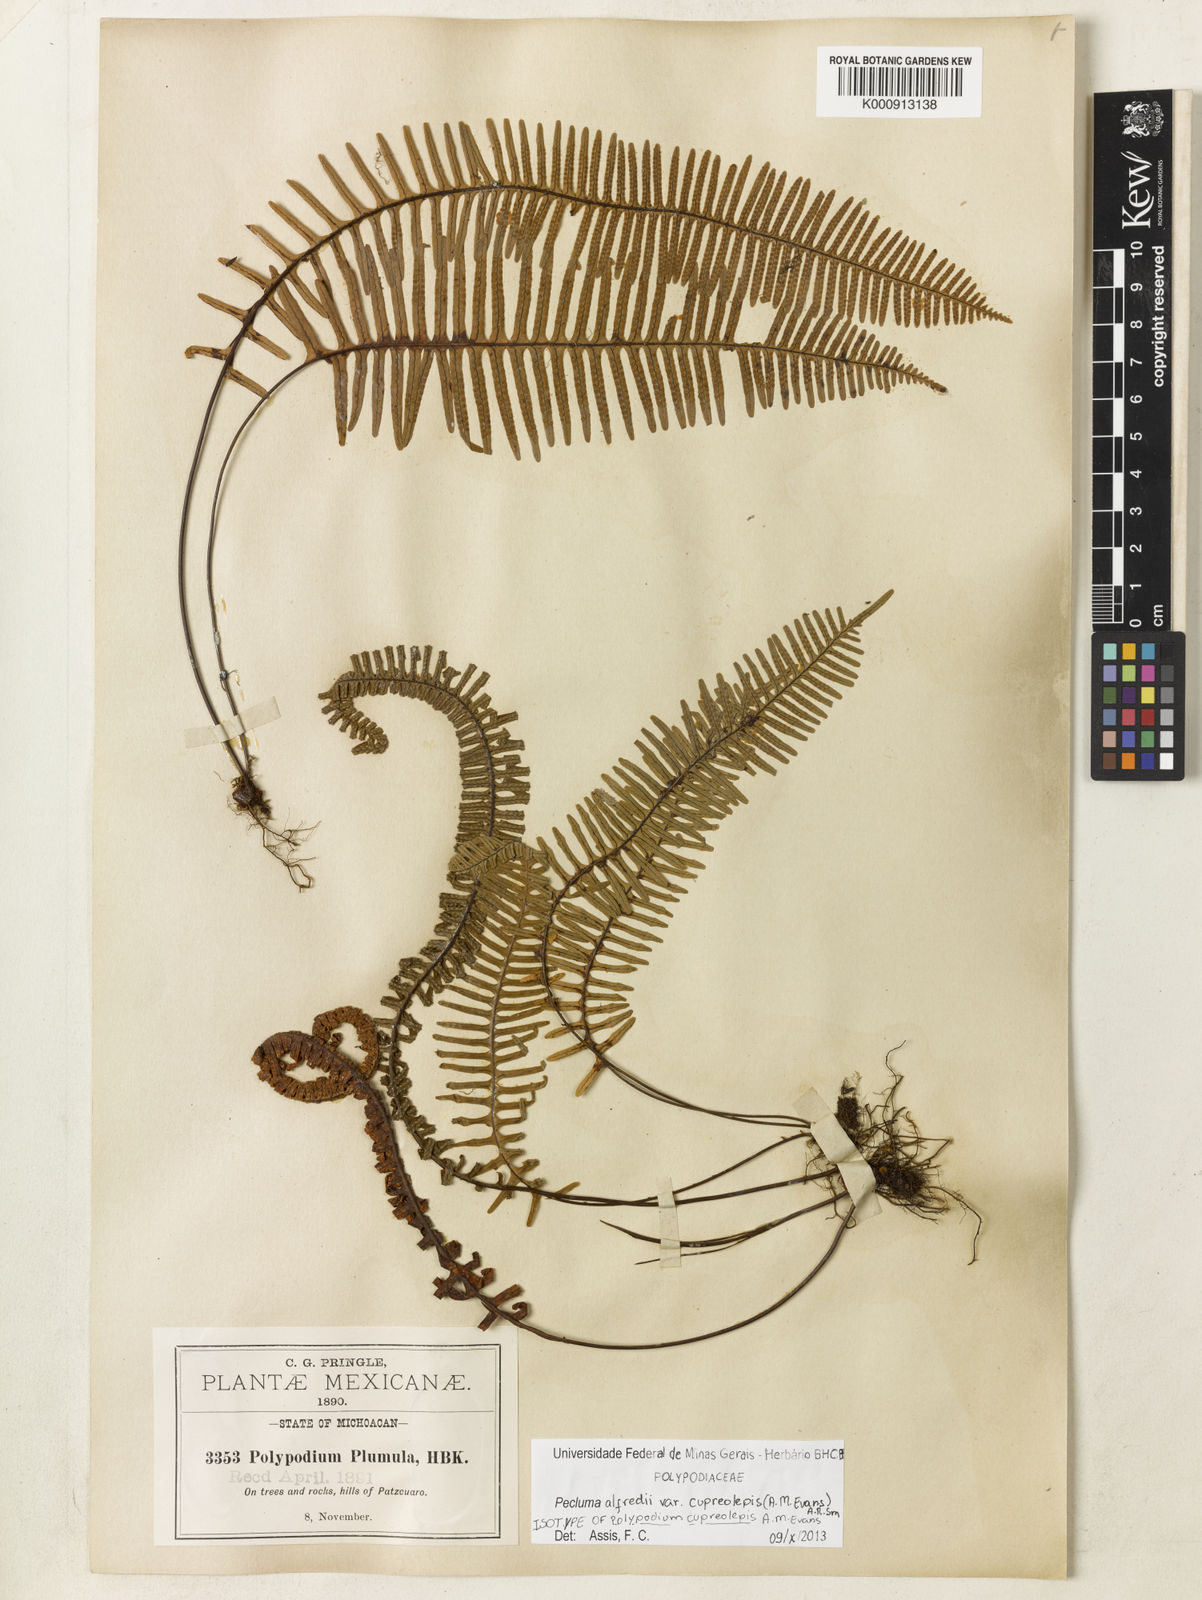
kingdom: Plantae
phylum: Tracheophyta
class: Polypodiopsida
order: Polypodiales
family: Polypodiaceae
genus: Pecluma
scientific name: Pecluma alfredii
